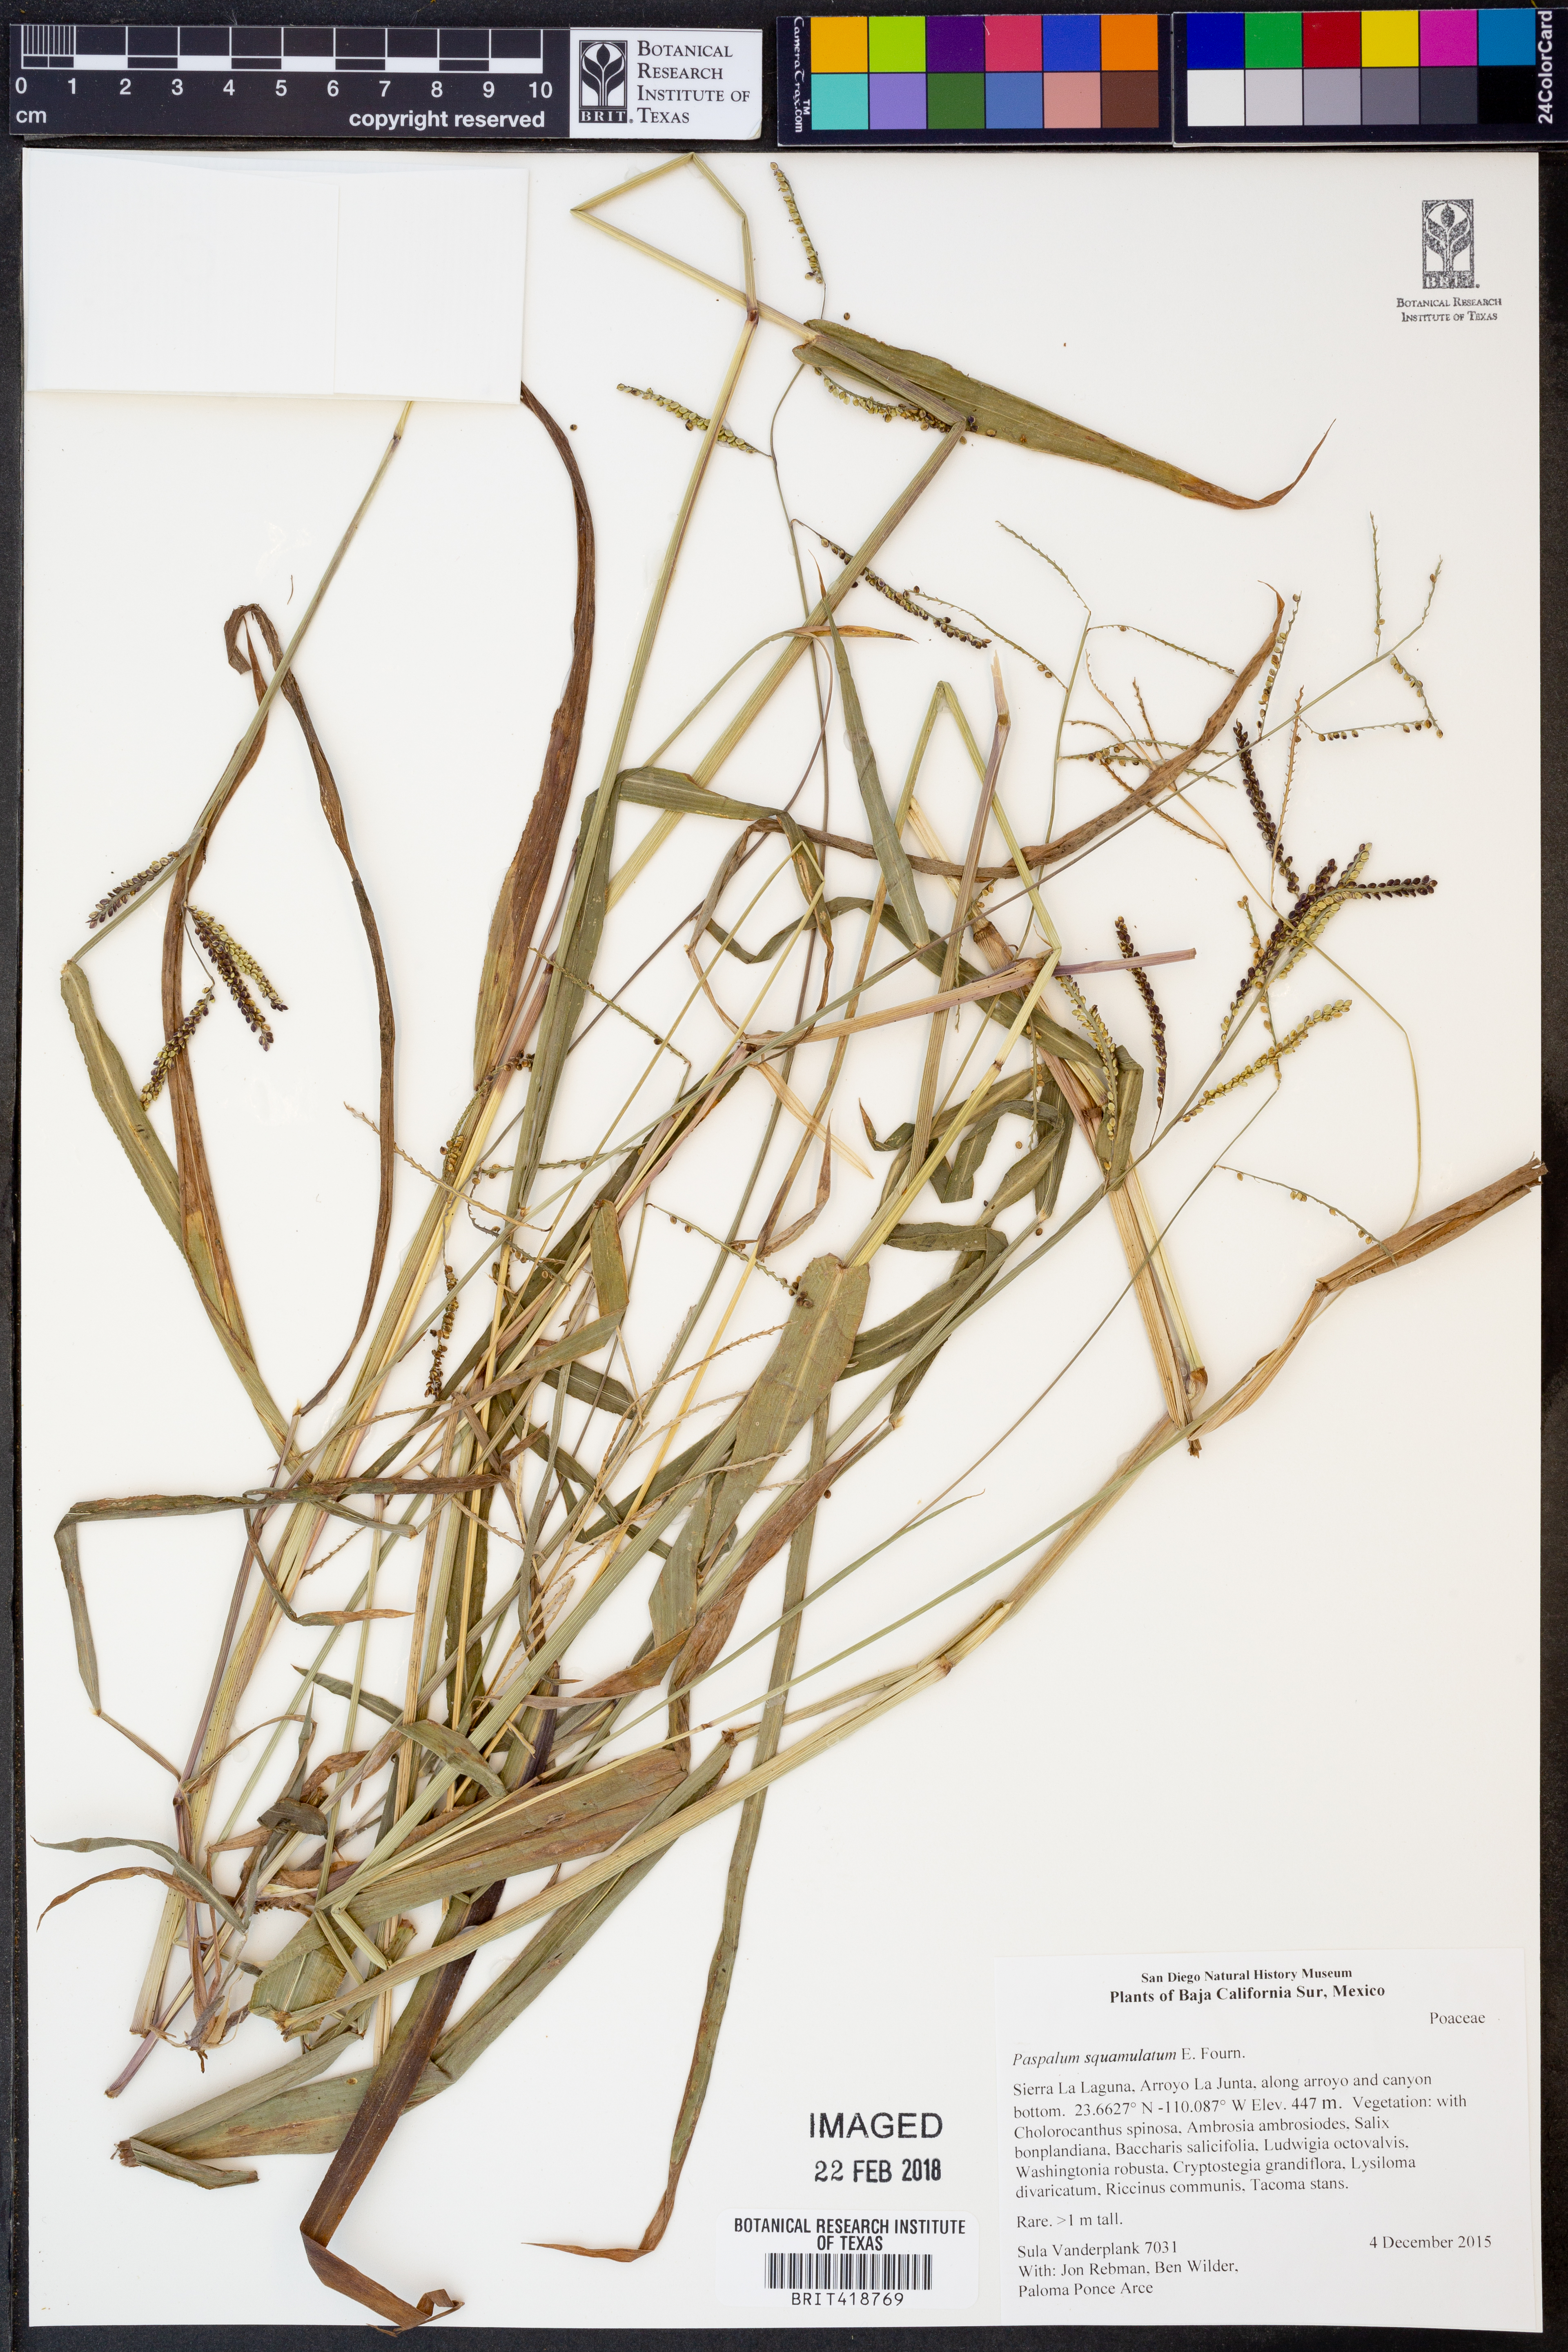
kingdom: Plantae
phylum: Tracheophyta
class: Liliopsida
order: Poales
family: Poaceae
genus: Paspalum
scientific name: Paspalum squamulatum
